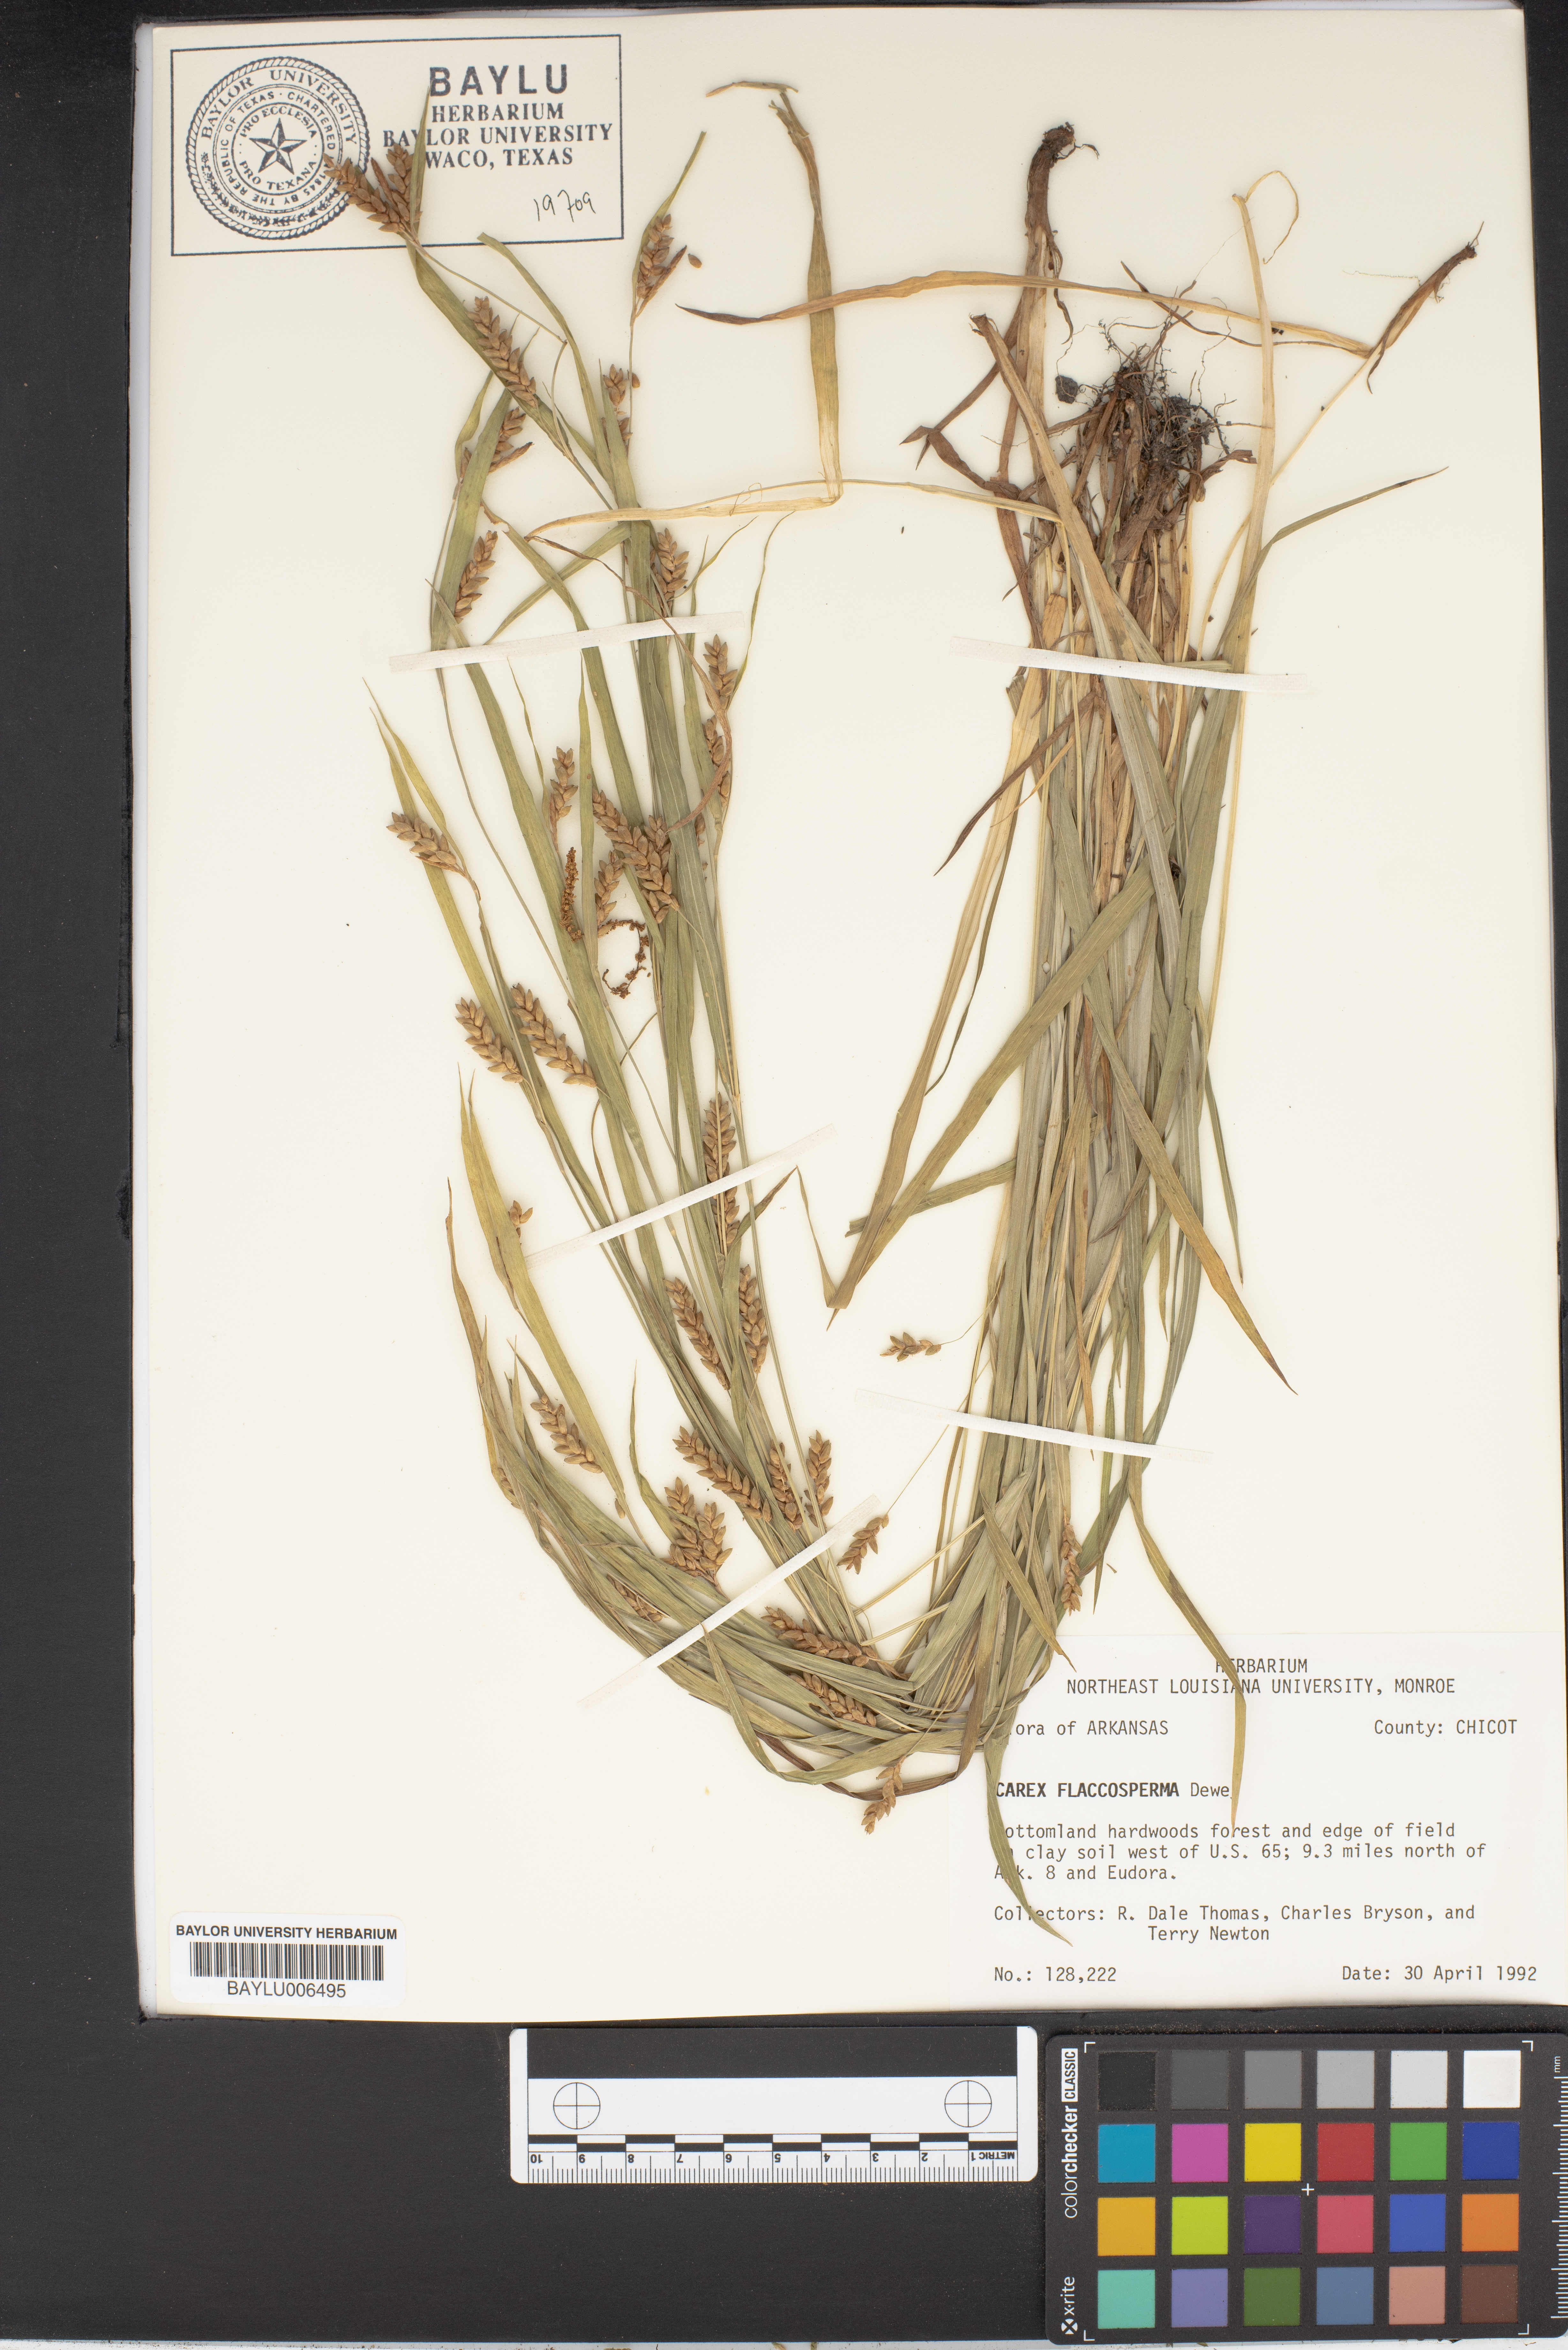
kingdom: Plantae
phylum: Tracheophyta
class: Liliopsida
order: Poales
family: Cyperaceae
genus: Carex
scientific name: Carex flaccosperma
